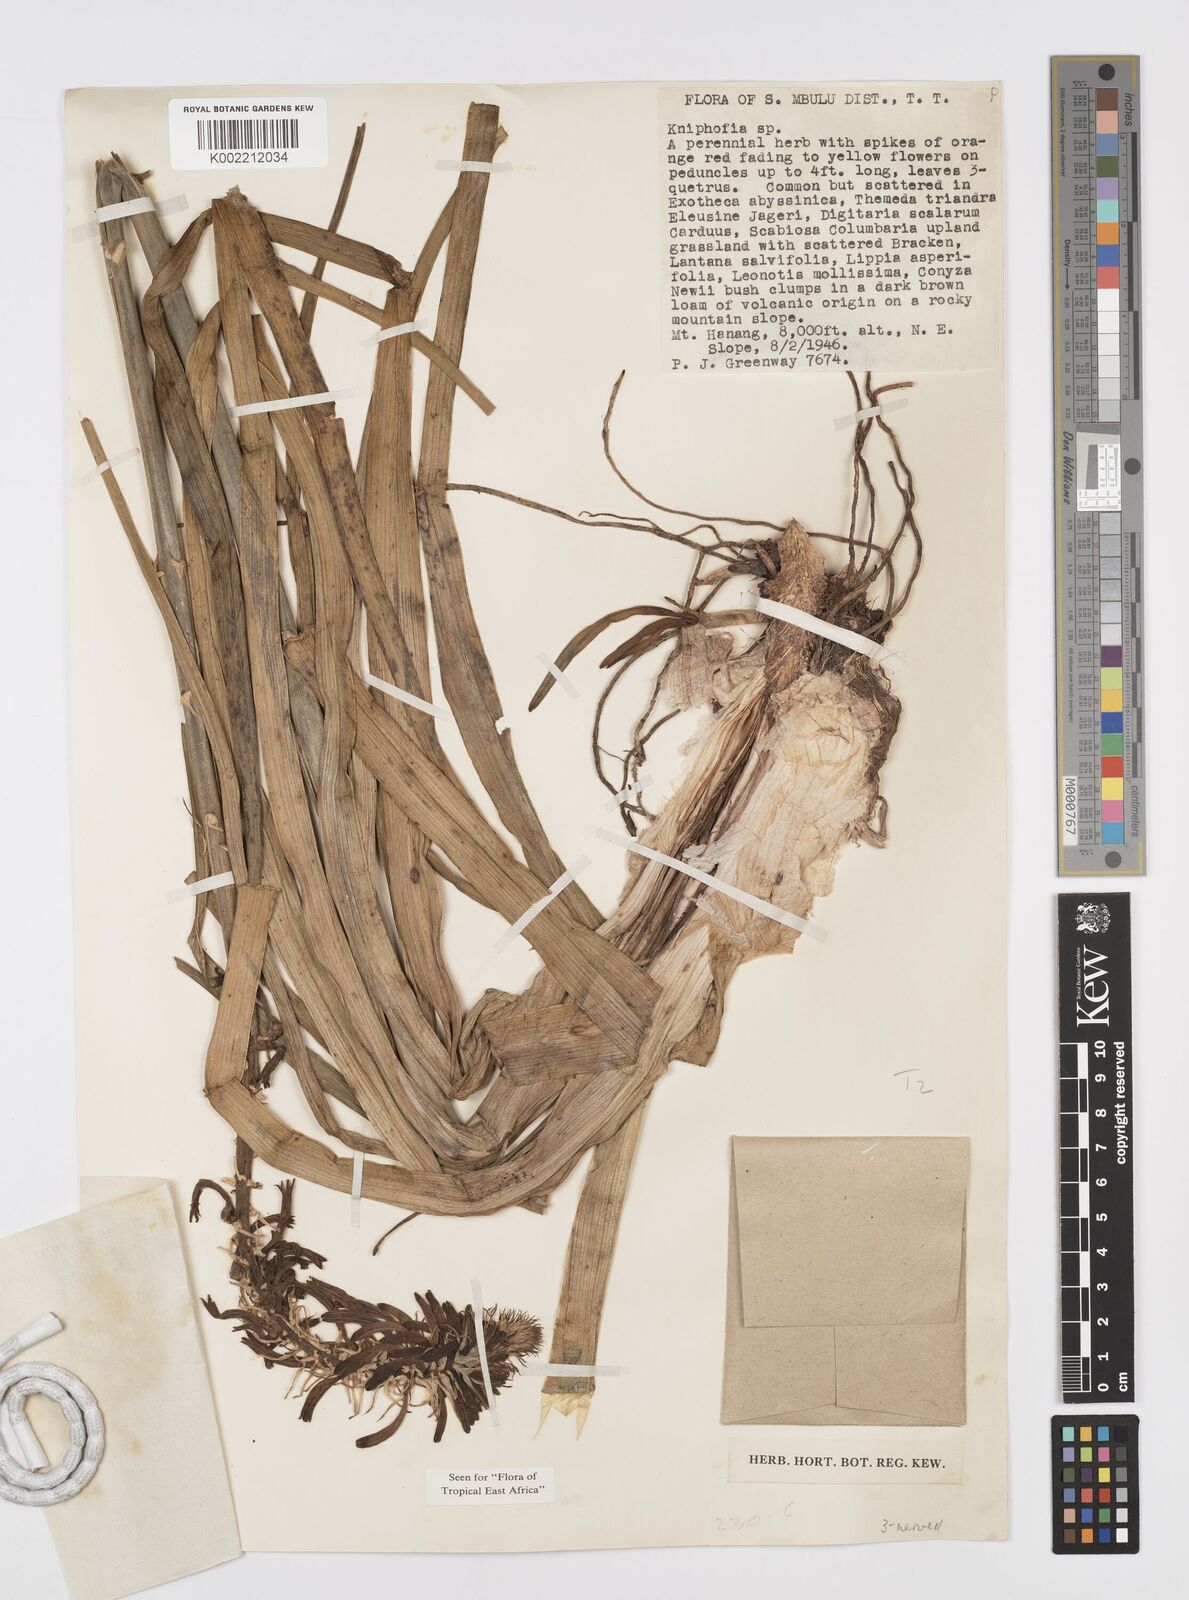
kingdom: Plantae
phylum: Tracheophyta
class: Liliopsida
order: Asparagales
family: Asphodelaceae
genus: Kniphofia
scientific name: Kniphofia thomsonii
